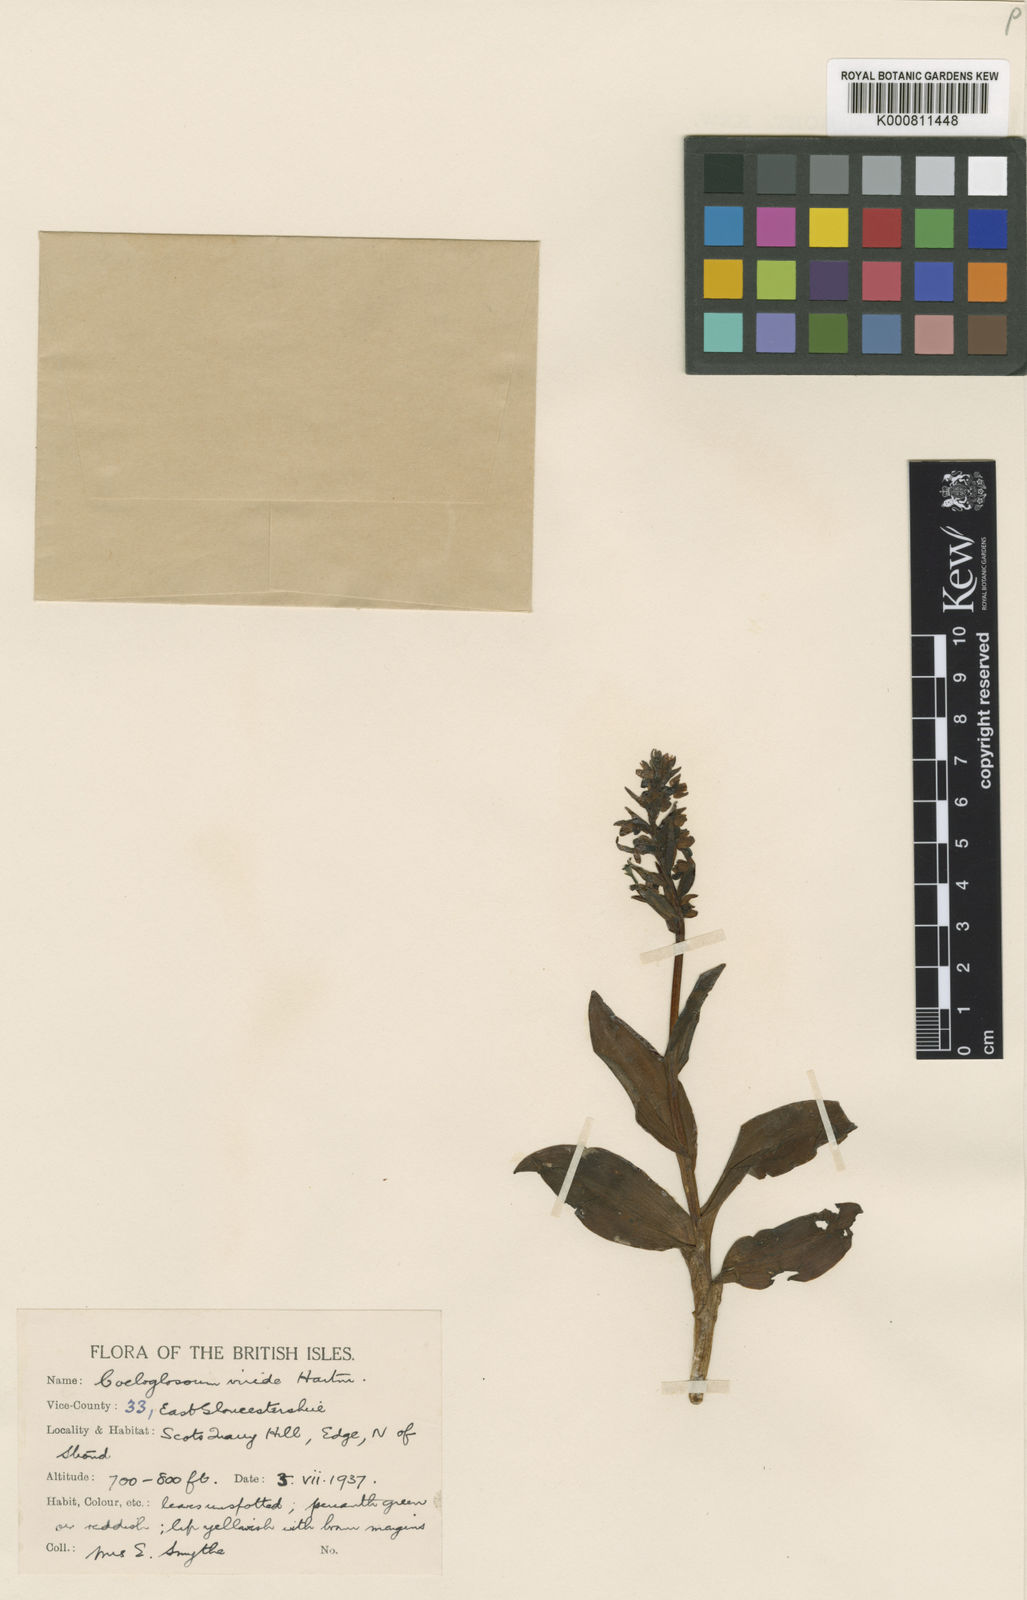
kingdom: Plantae
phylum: Tracheophyta
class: Liliopsida
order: Asparagales
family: Orchidaceae
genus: Dactylorhiza
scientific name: Dactylorhiza viridis
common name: Longbract frog orchid
